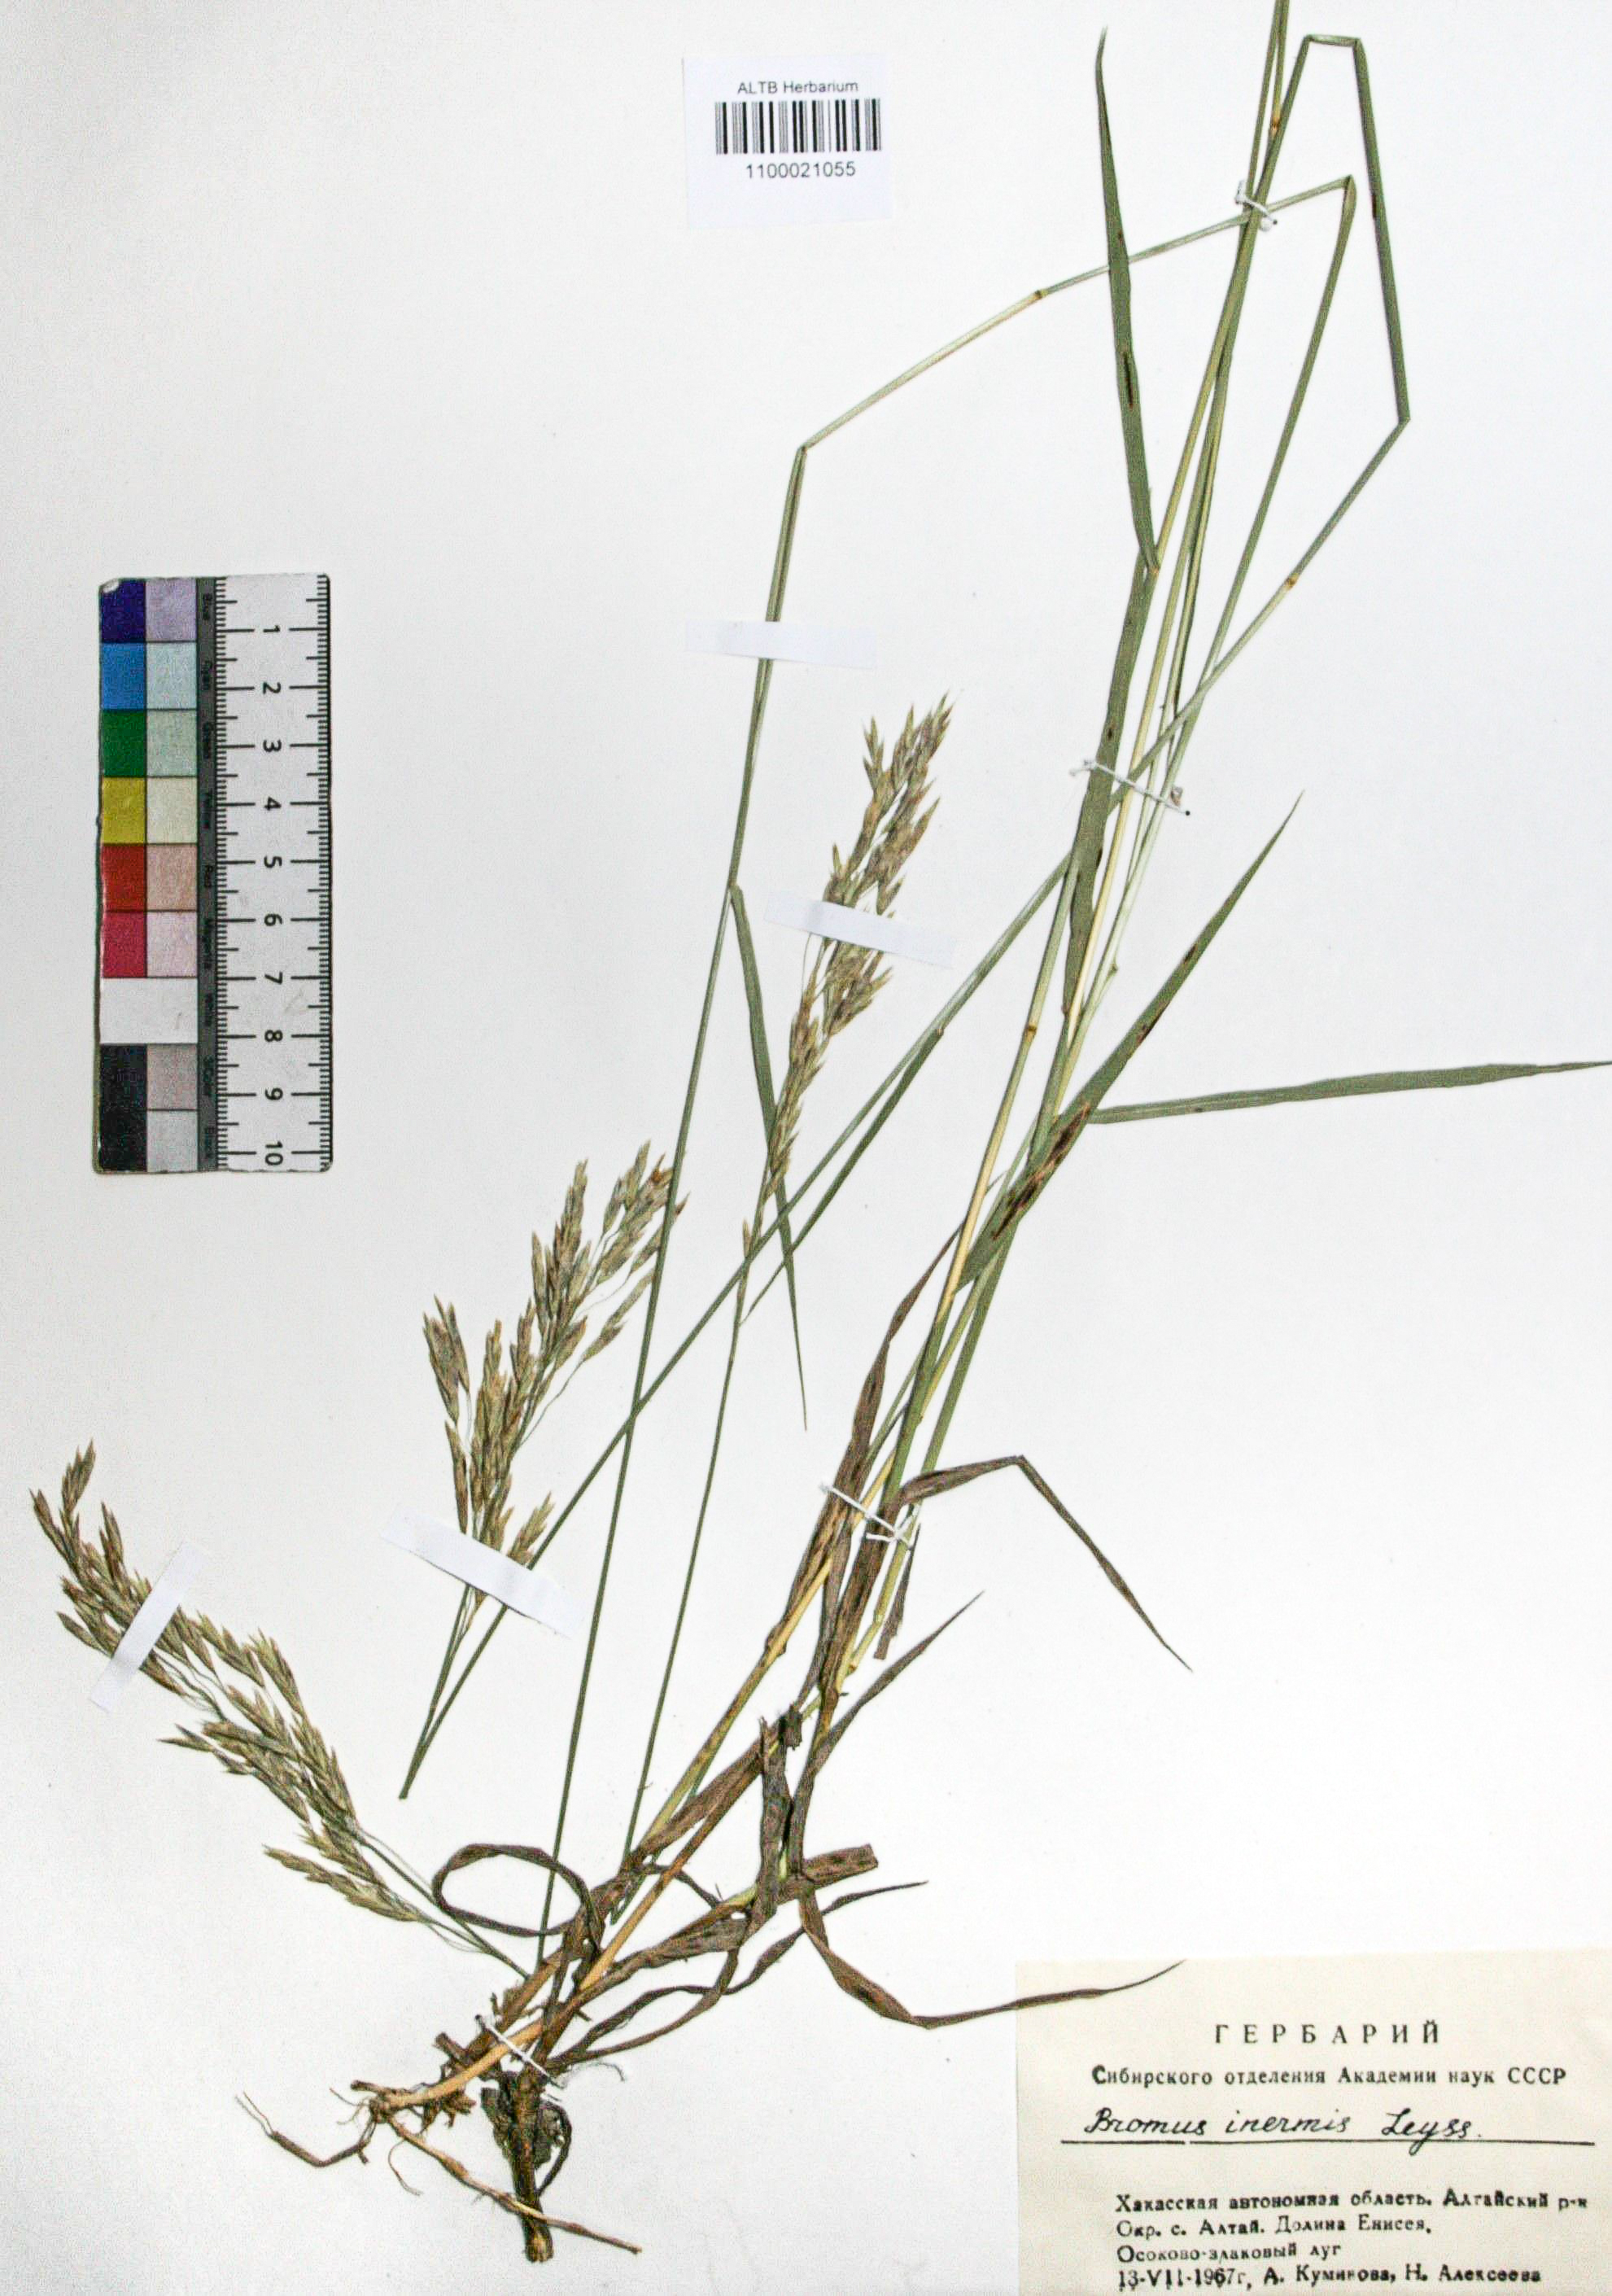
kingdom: Plantae
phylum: Tracheophyta
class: Liliopsida
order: Poales
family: Poaceae
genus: Bromus
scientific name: Bromus inermis
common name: Smooth brome
